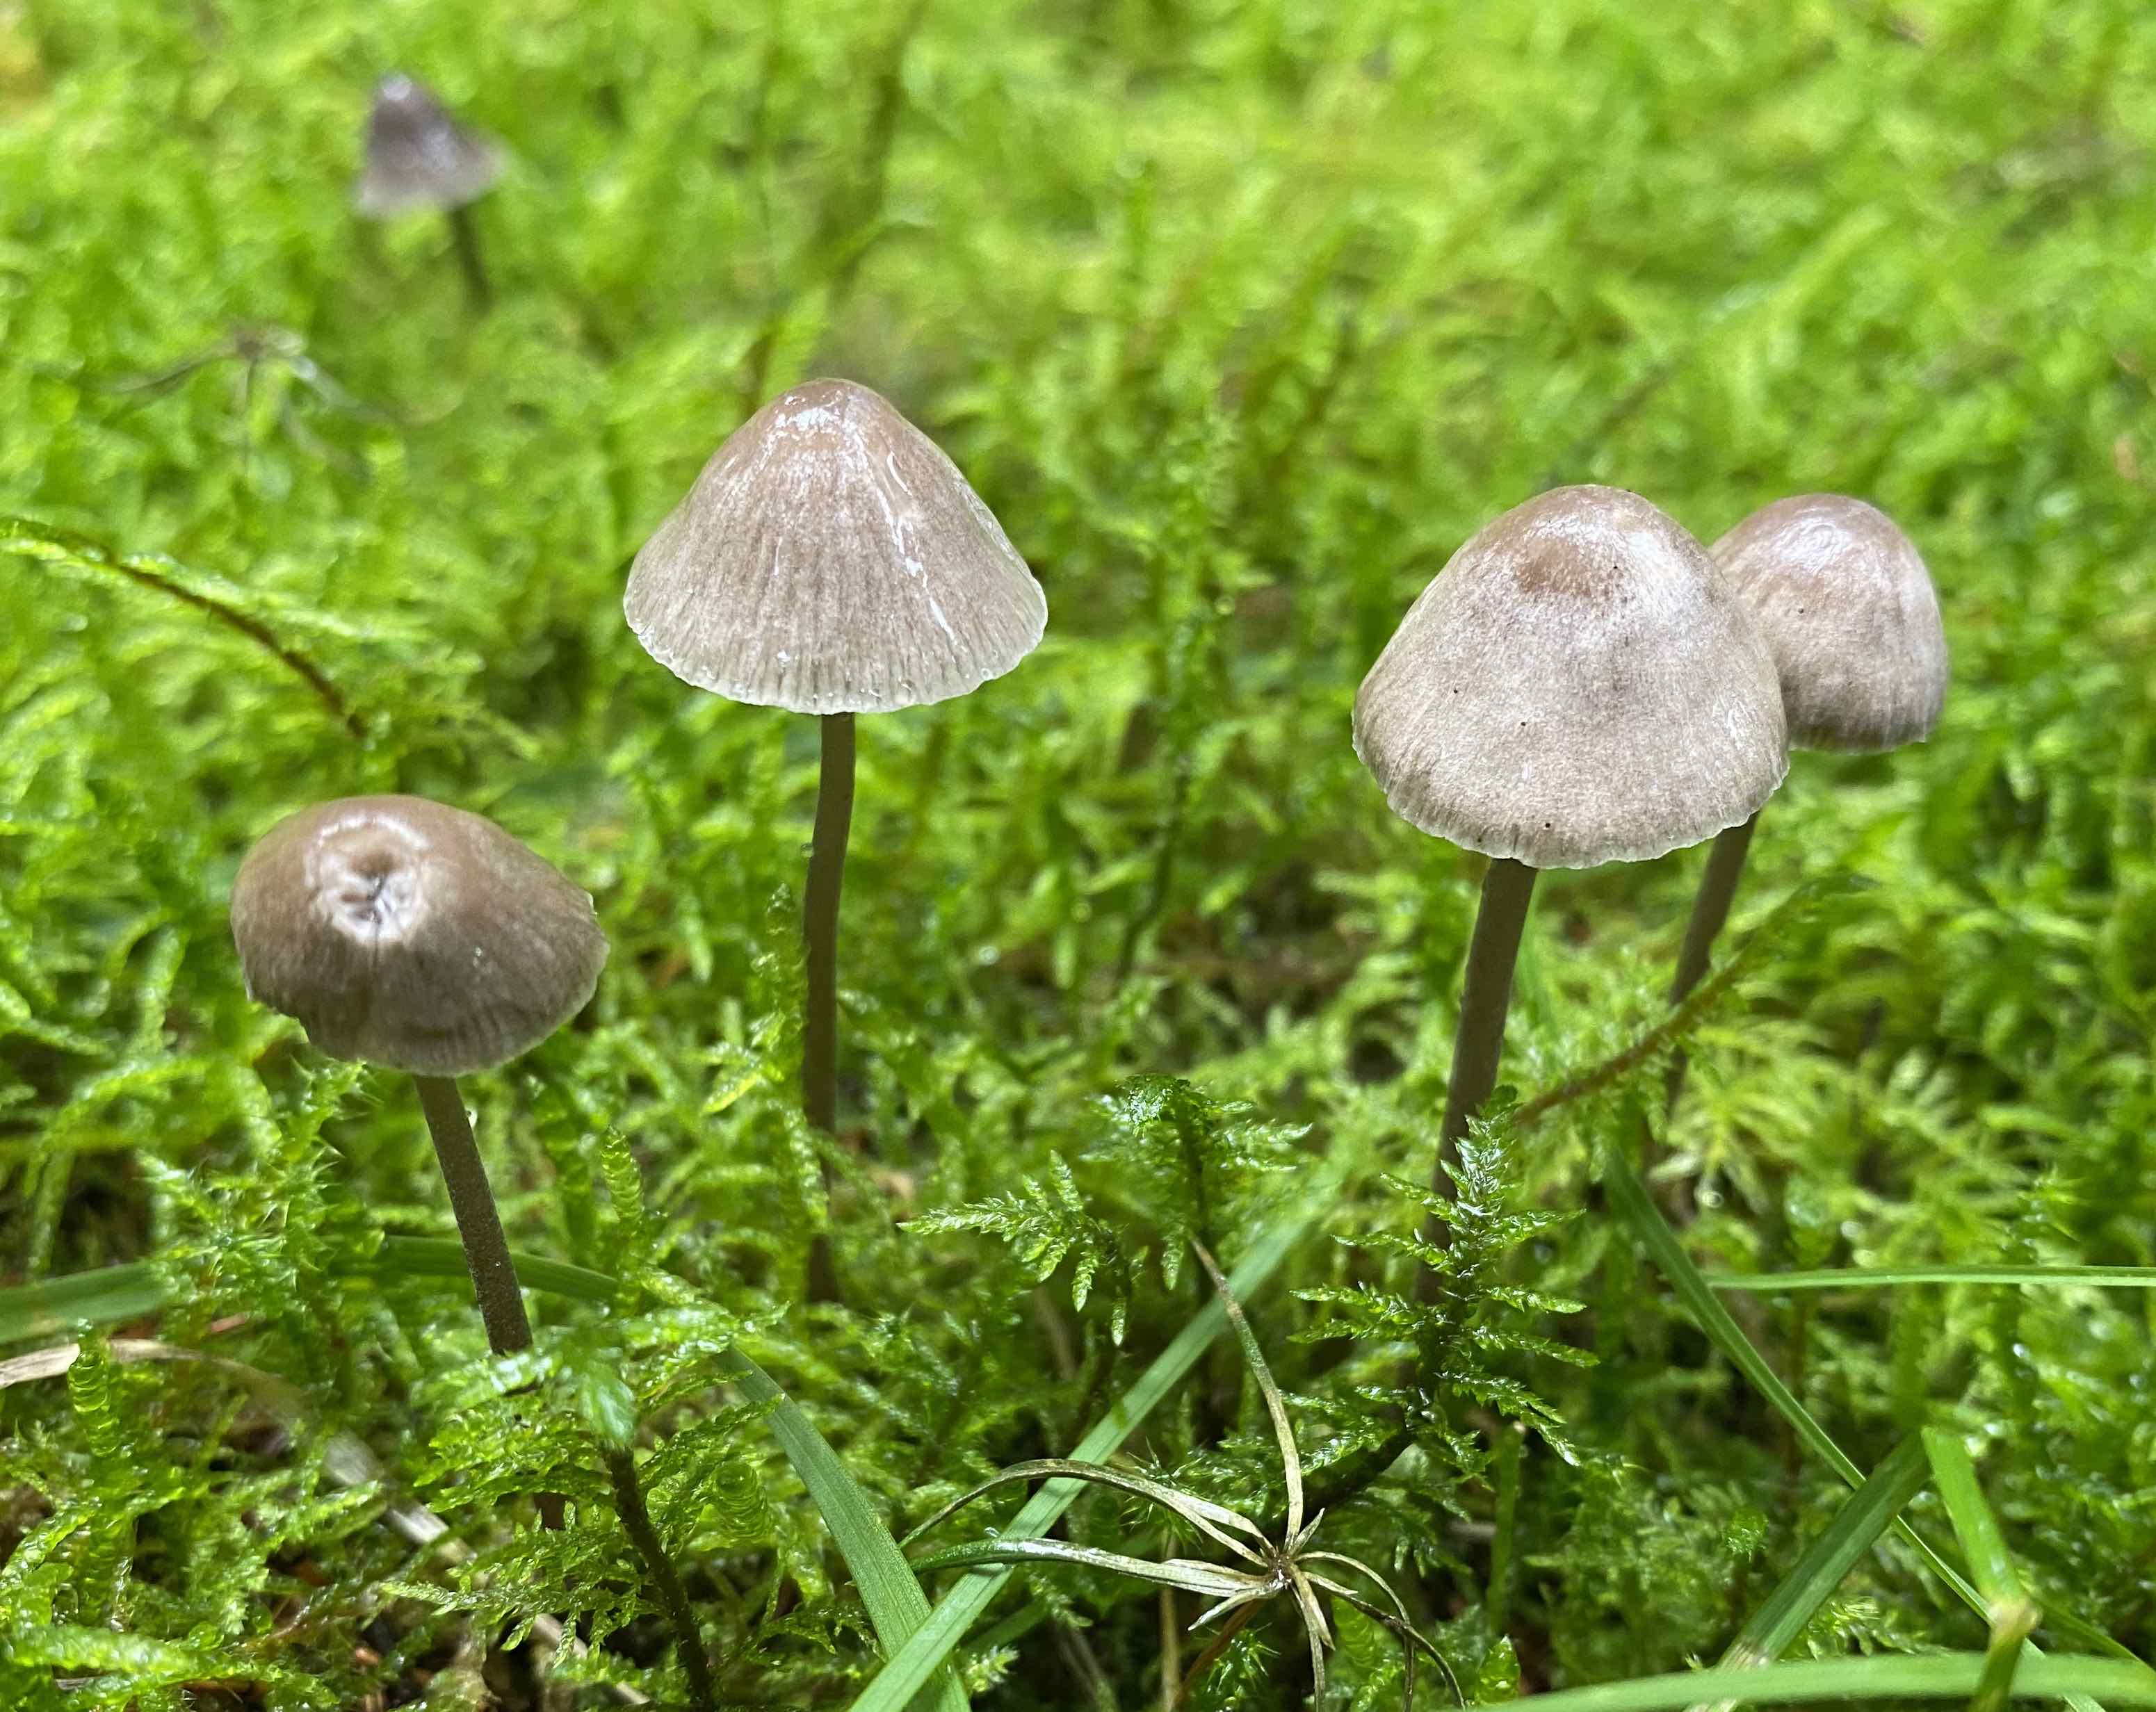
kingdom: Fungi
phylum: Basidiomycota
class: Agaricomycetes
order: Agaricales
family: Mycenaceae
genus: Mycena
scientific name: Mycena leptocephala
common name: klor-huesvamp
